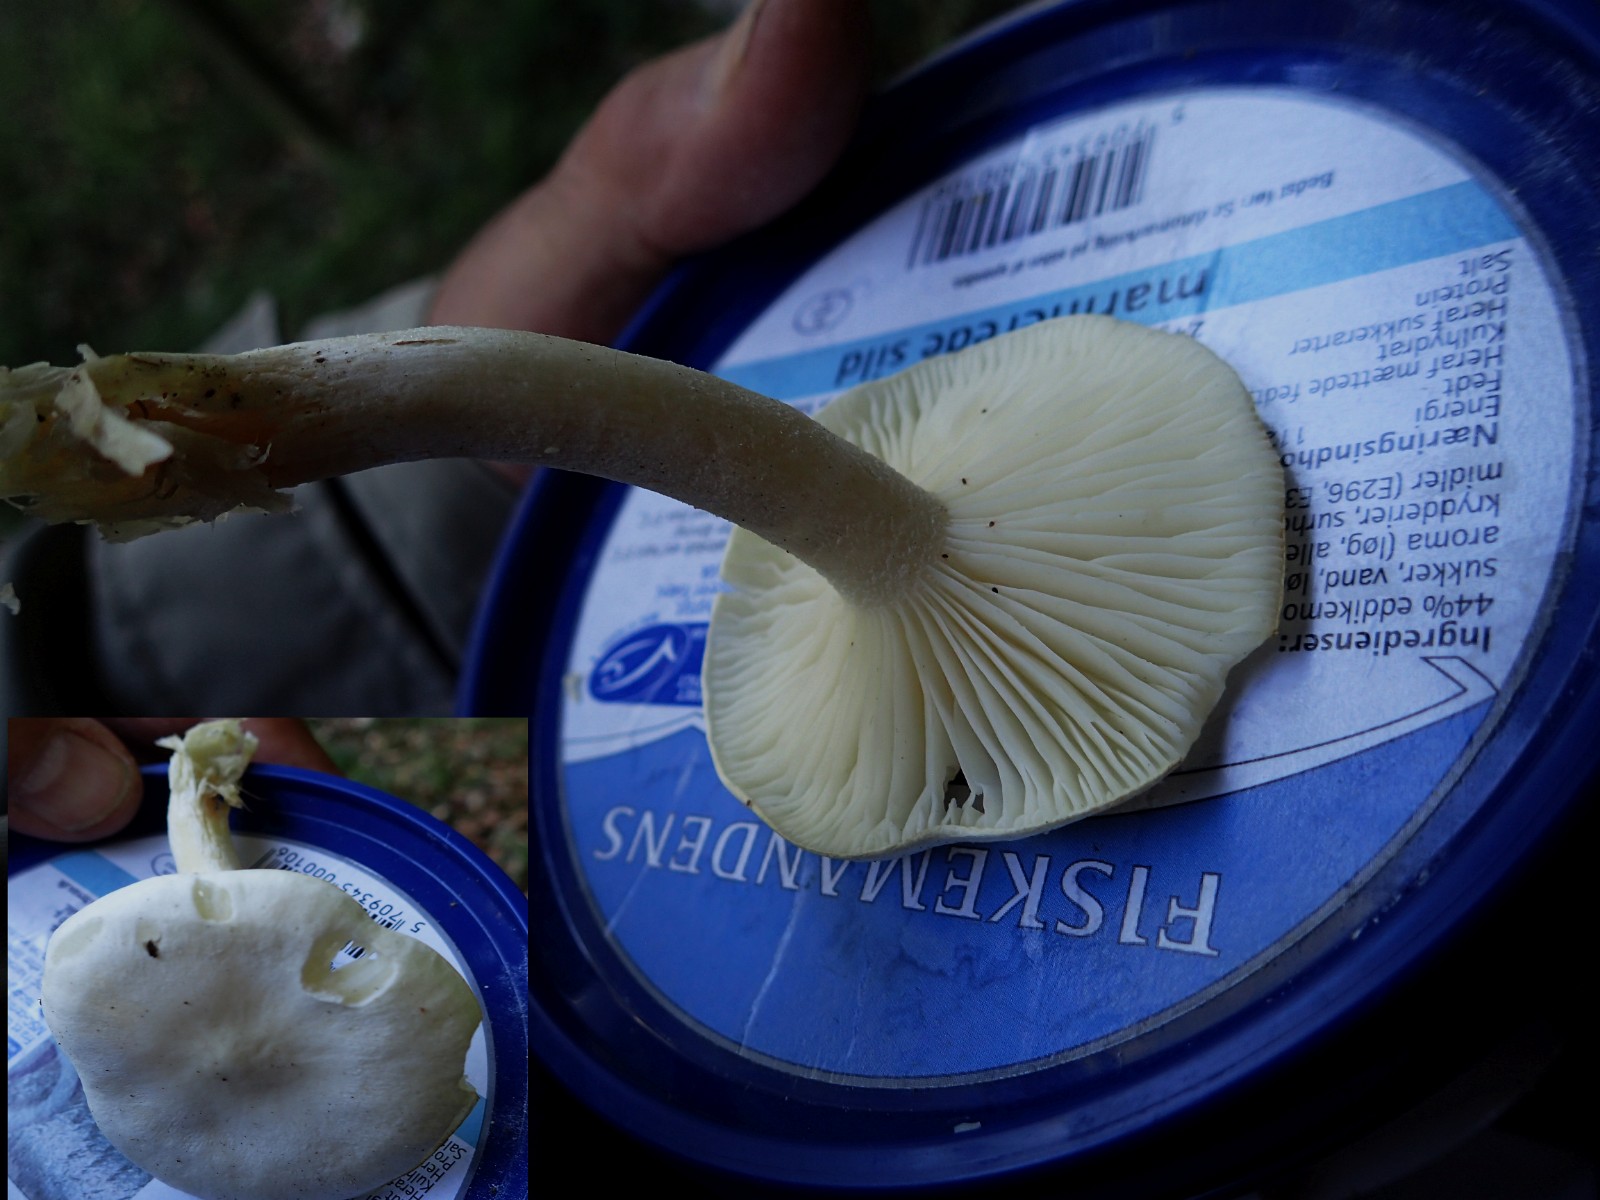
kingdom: Fungi
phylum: Basidiomycota
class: Agaricomycetes
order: Agaricales
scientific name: Agaricales
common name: champignonordenen
